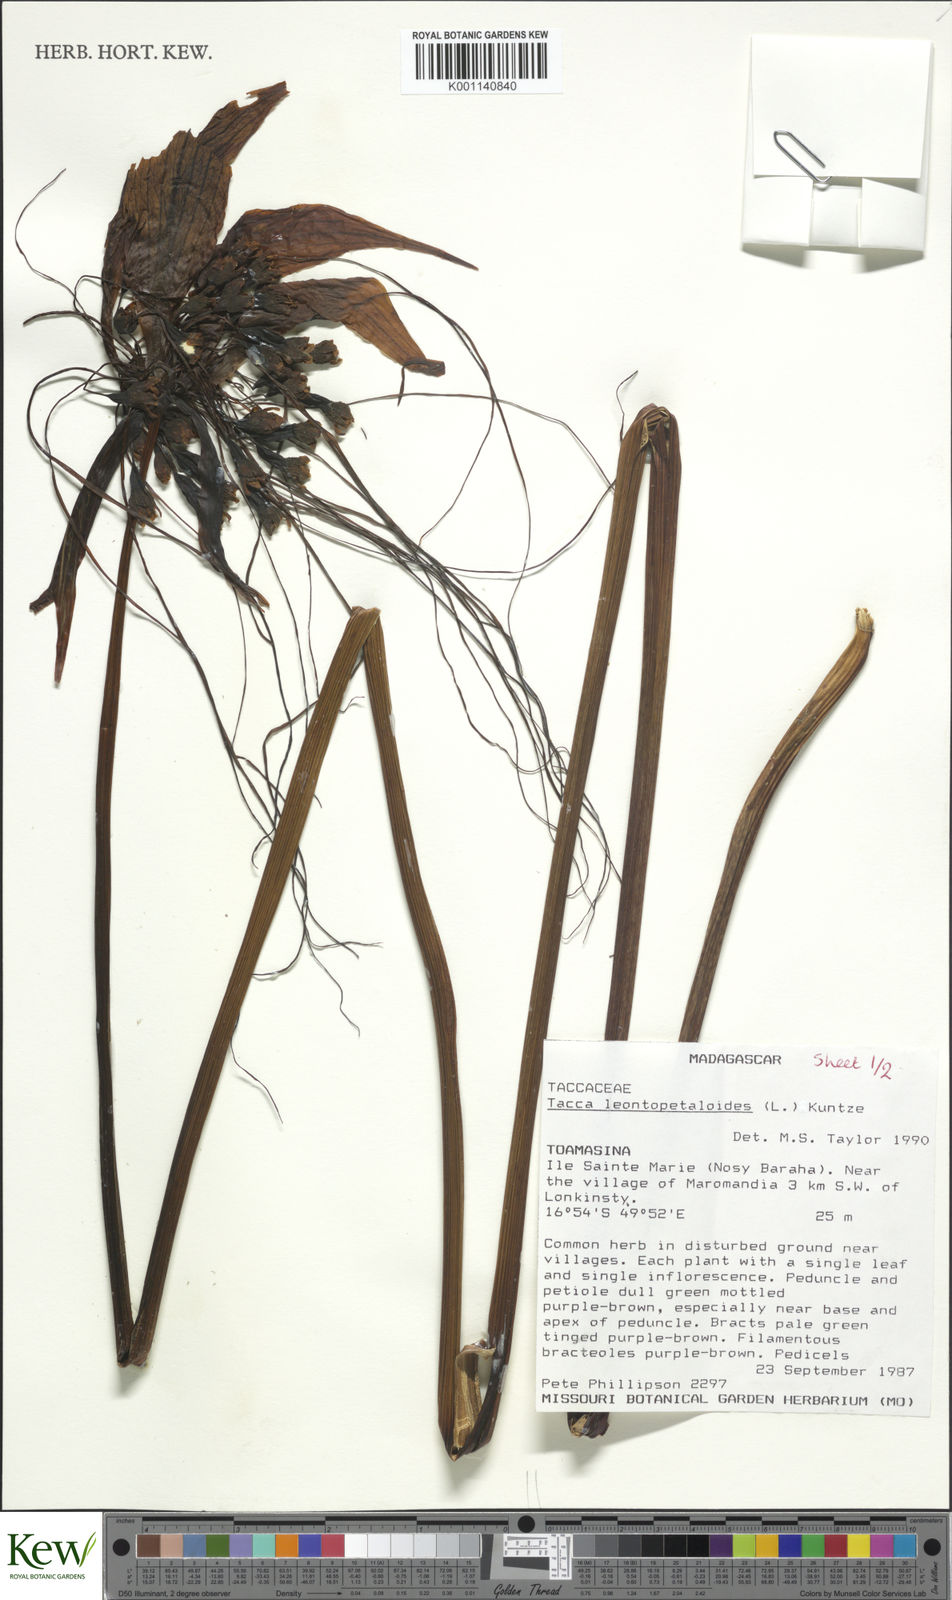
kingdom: Plantae
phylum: Tracheophyta
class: Liliopsida
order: Dioscoreales
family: Dioscoreaceae
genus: Tacca
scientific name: Tacca leontopetaloides
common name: Arrowroot
